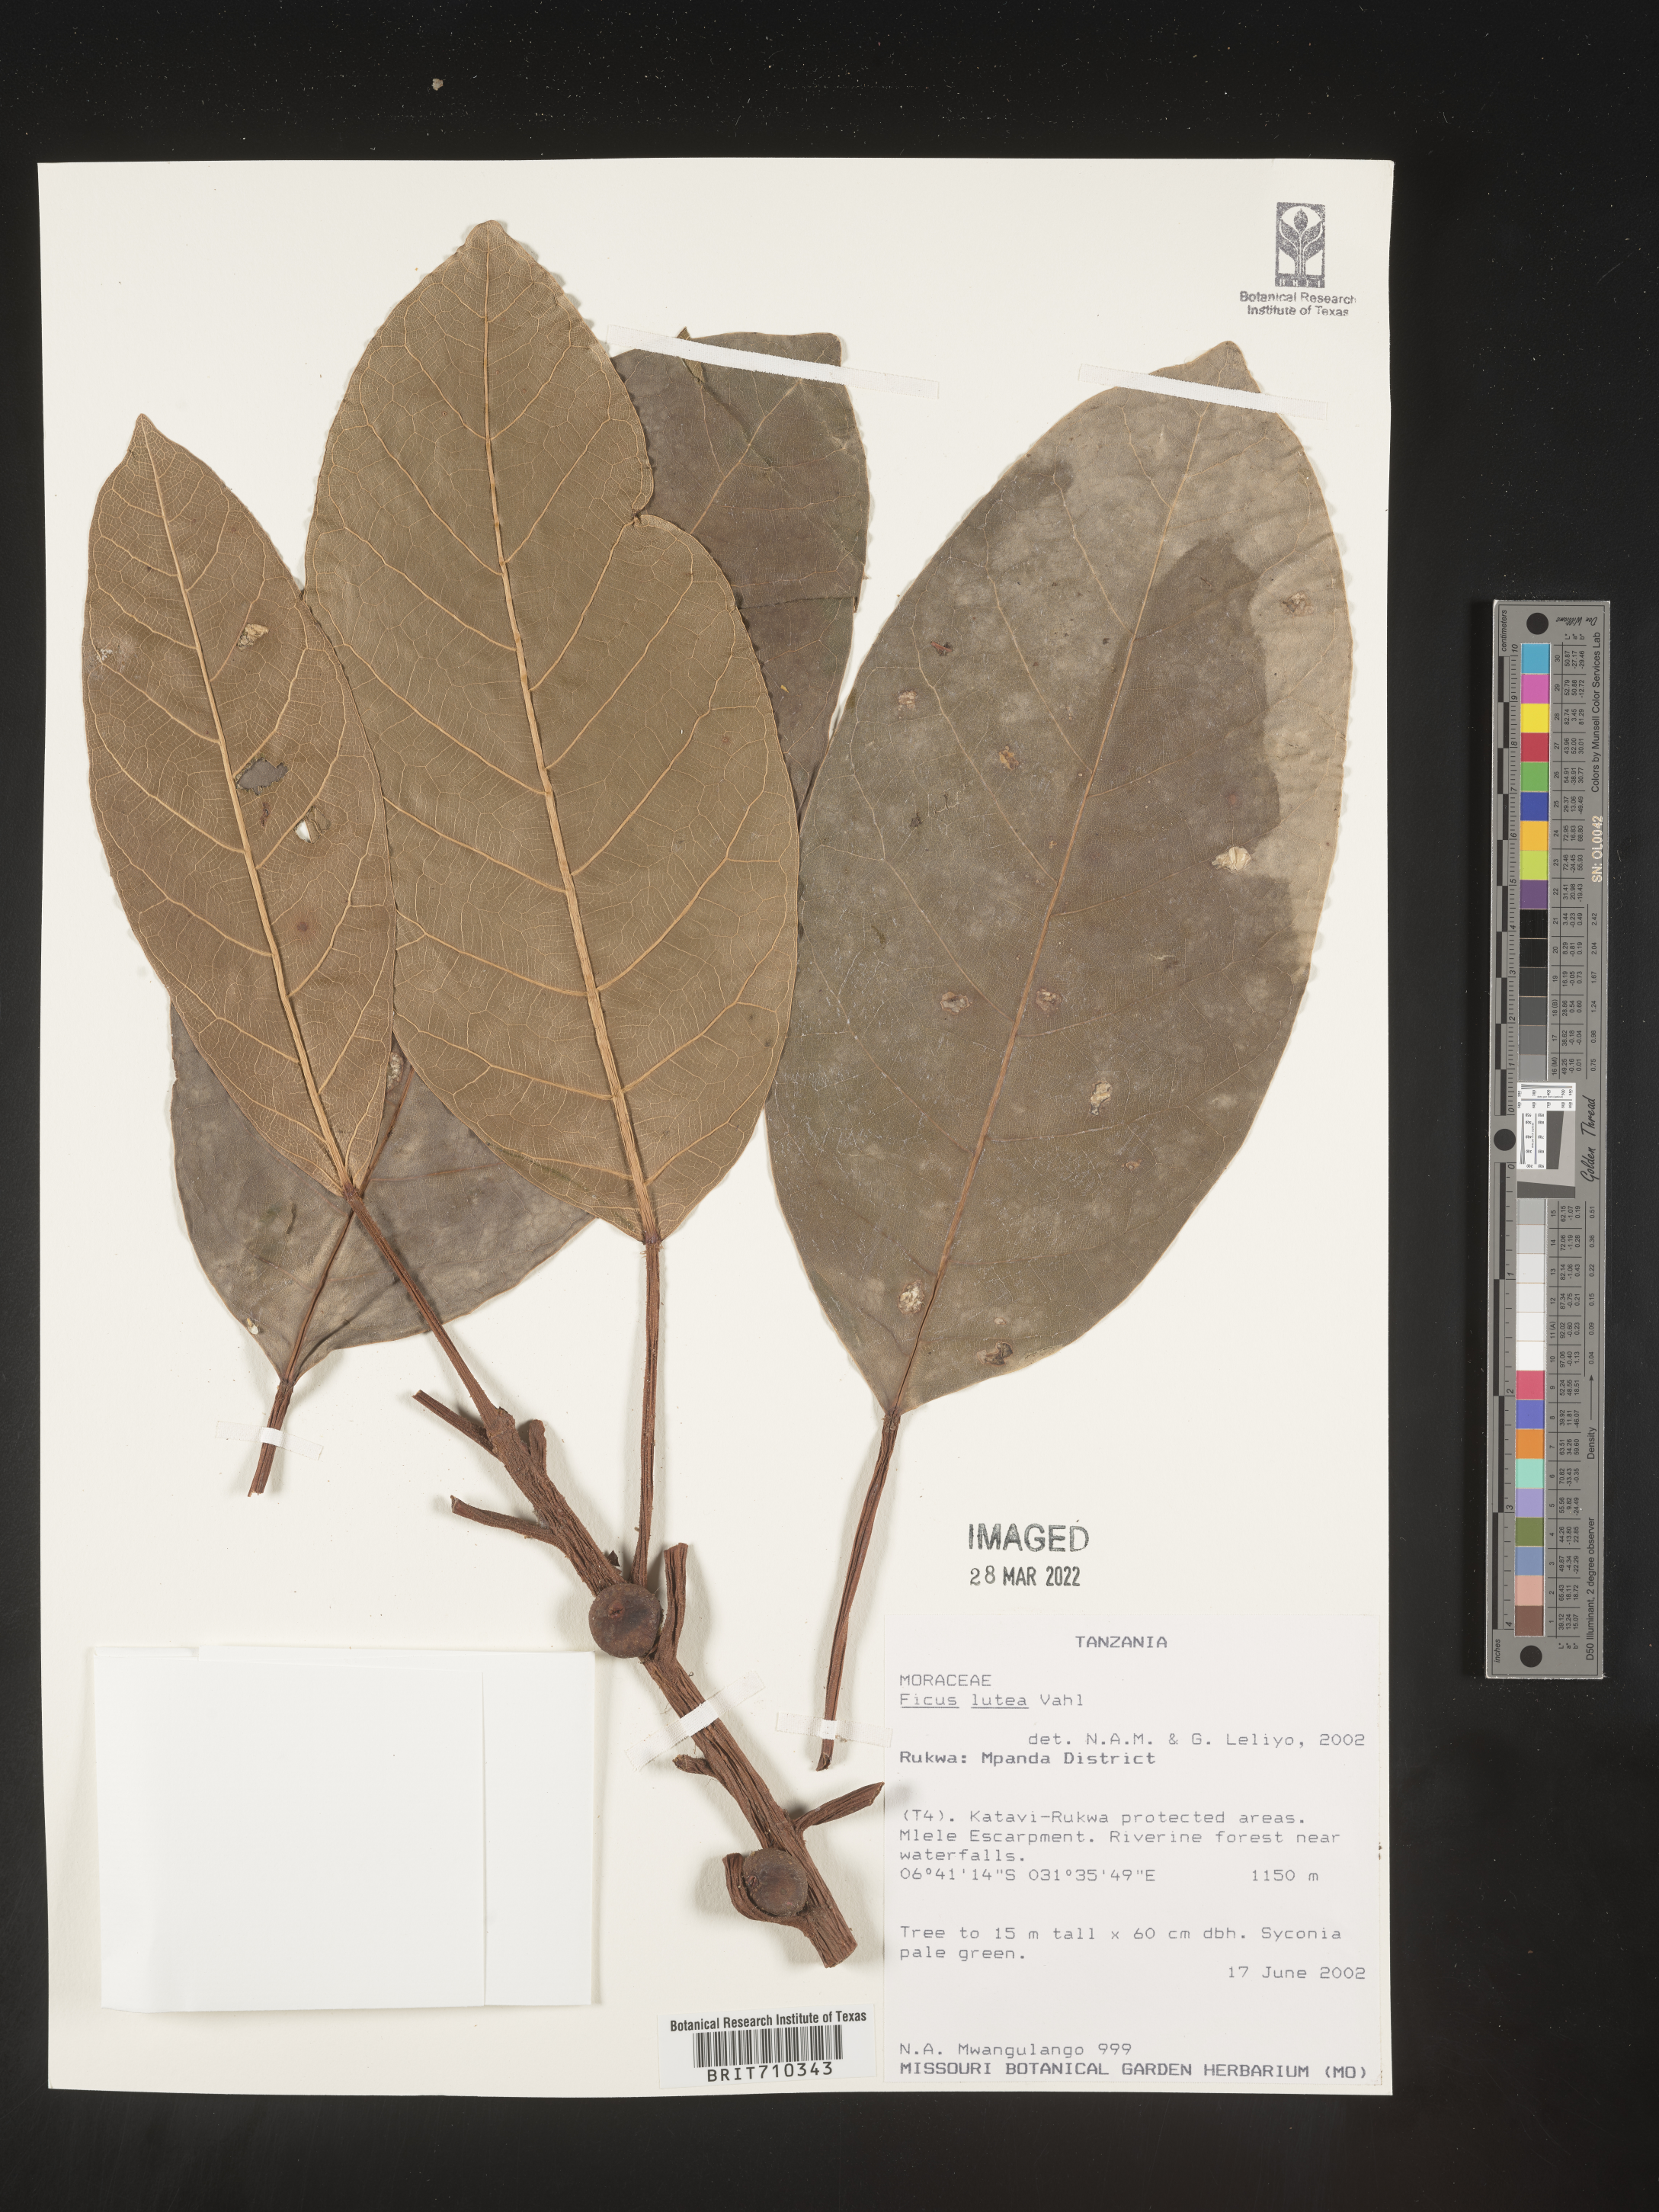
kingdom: Plantae
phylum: Tracheophyta
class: Magnoliopsida
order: Rosales
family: Moraceae
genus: Ficus
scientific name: Ficus
